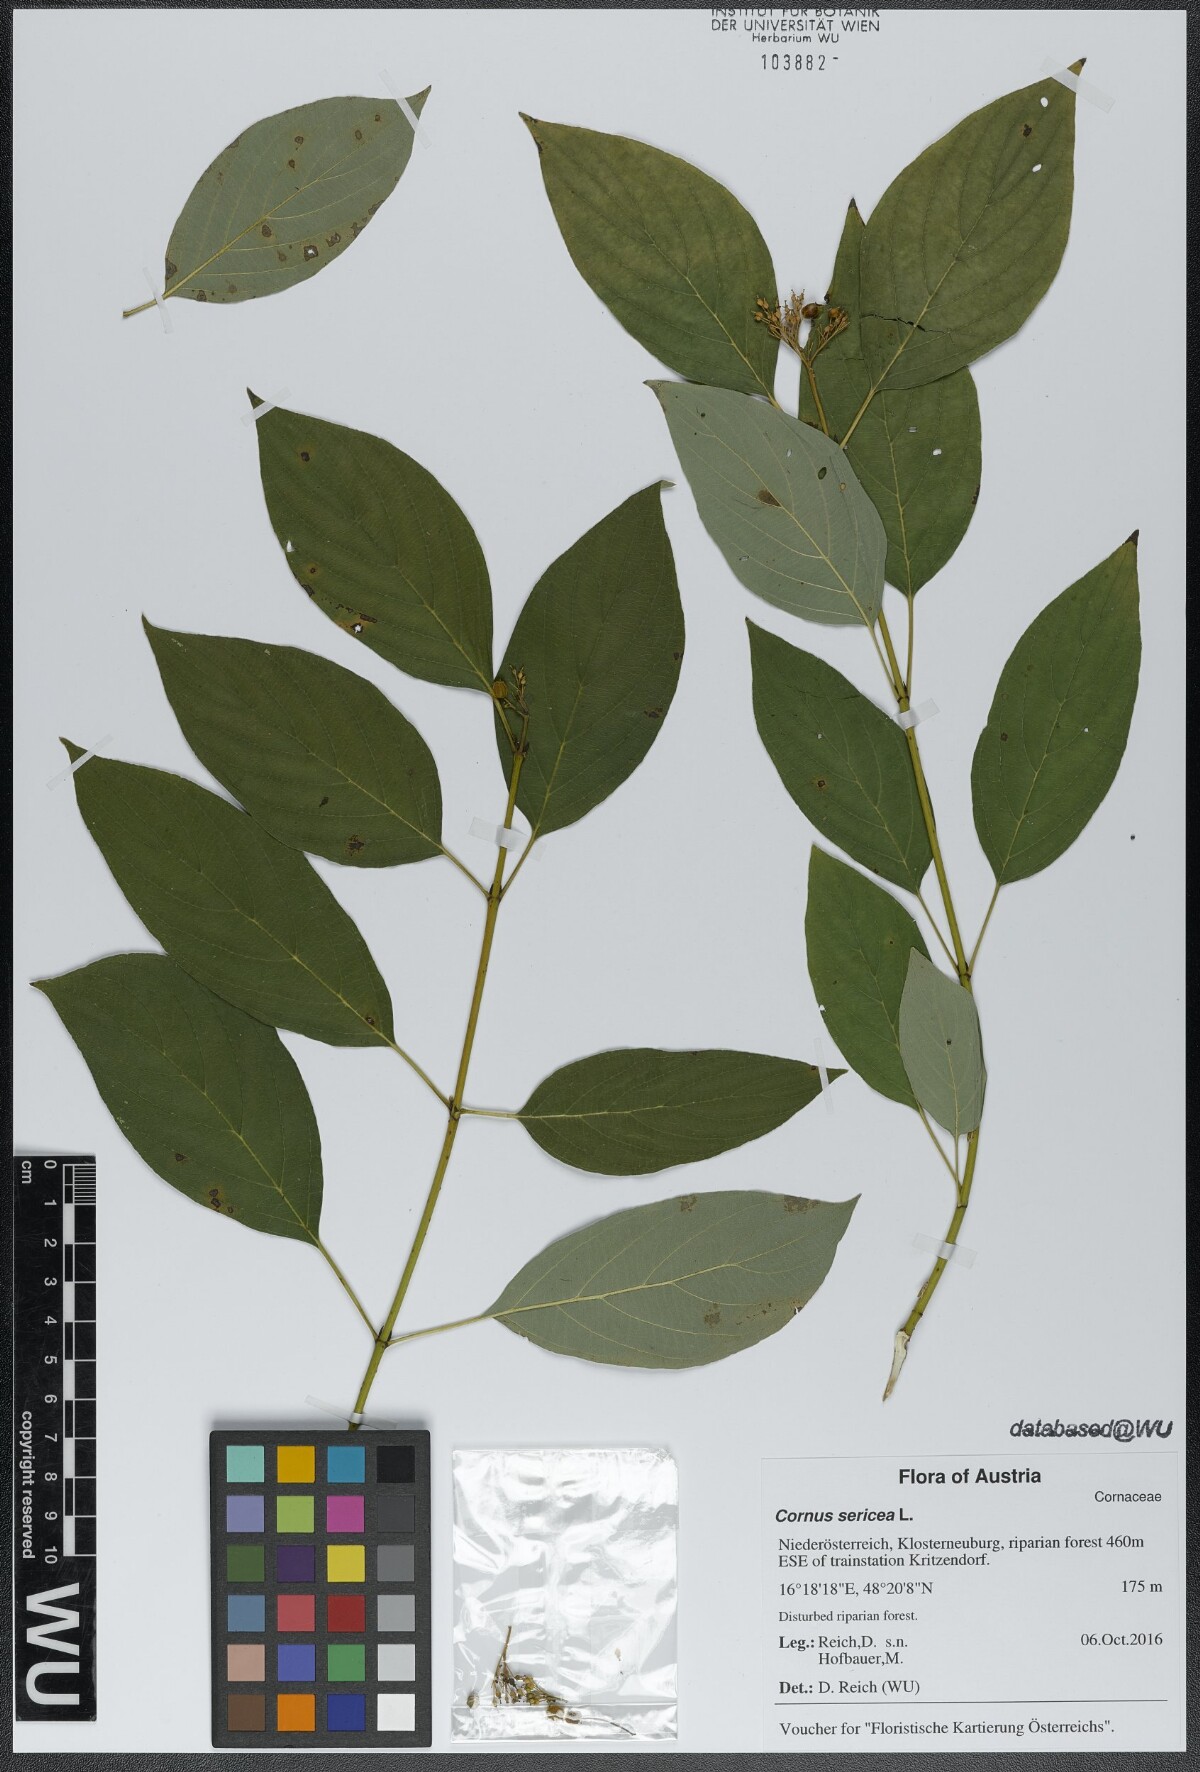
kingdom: Plantae
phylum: Tracheophyta
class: Magnoliopsida
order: Cornales
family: Cornaceae
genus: Cornus
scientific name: Cornus sericea
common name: Red-osier dogwood
